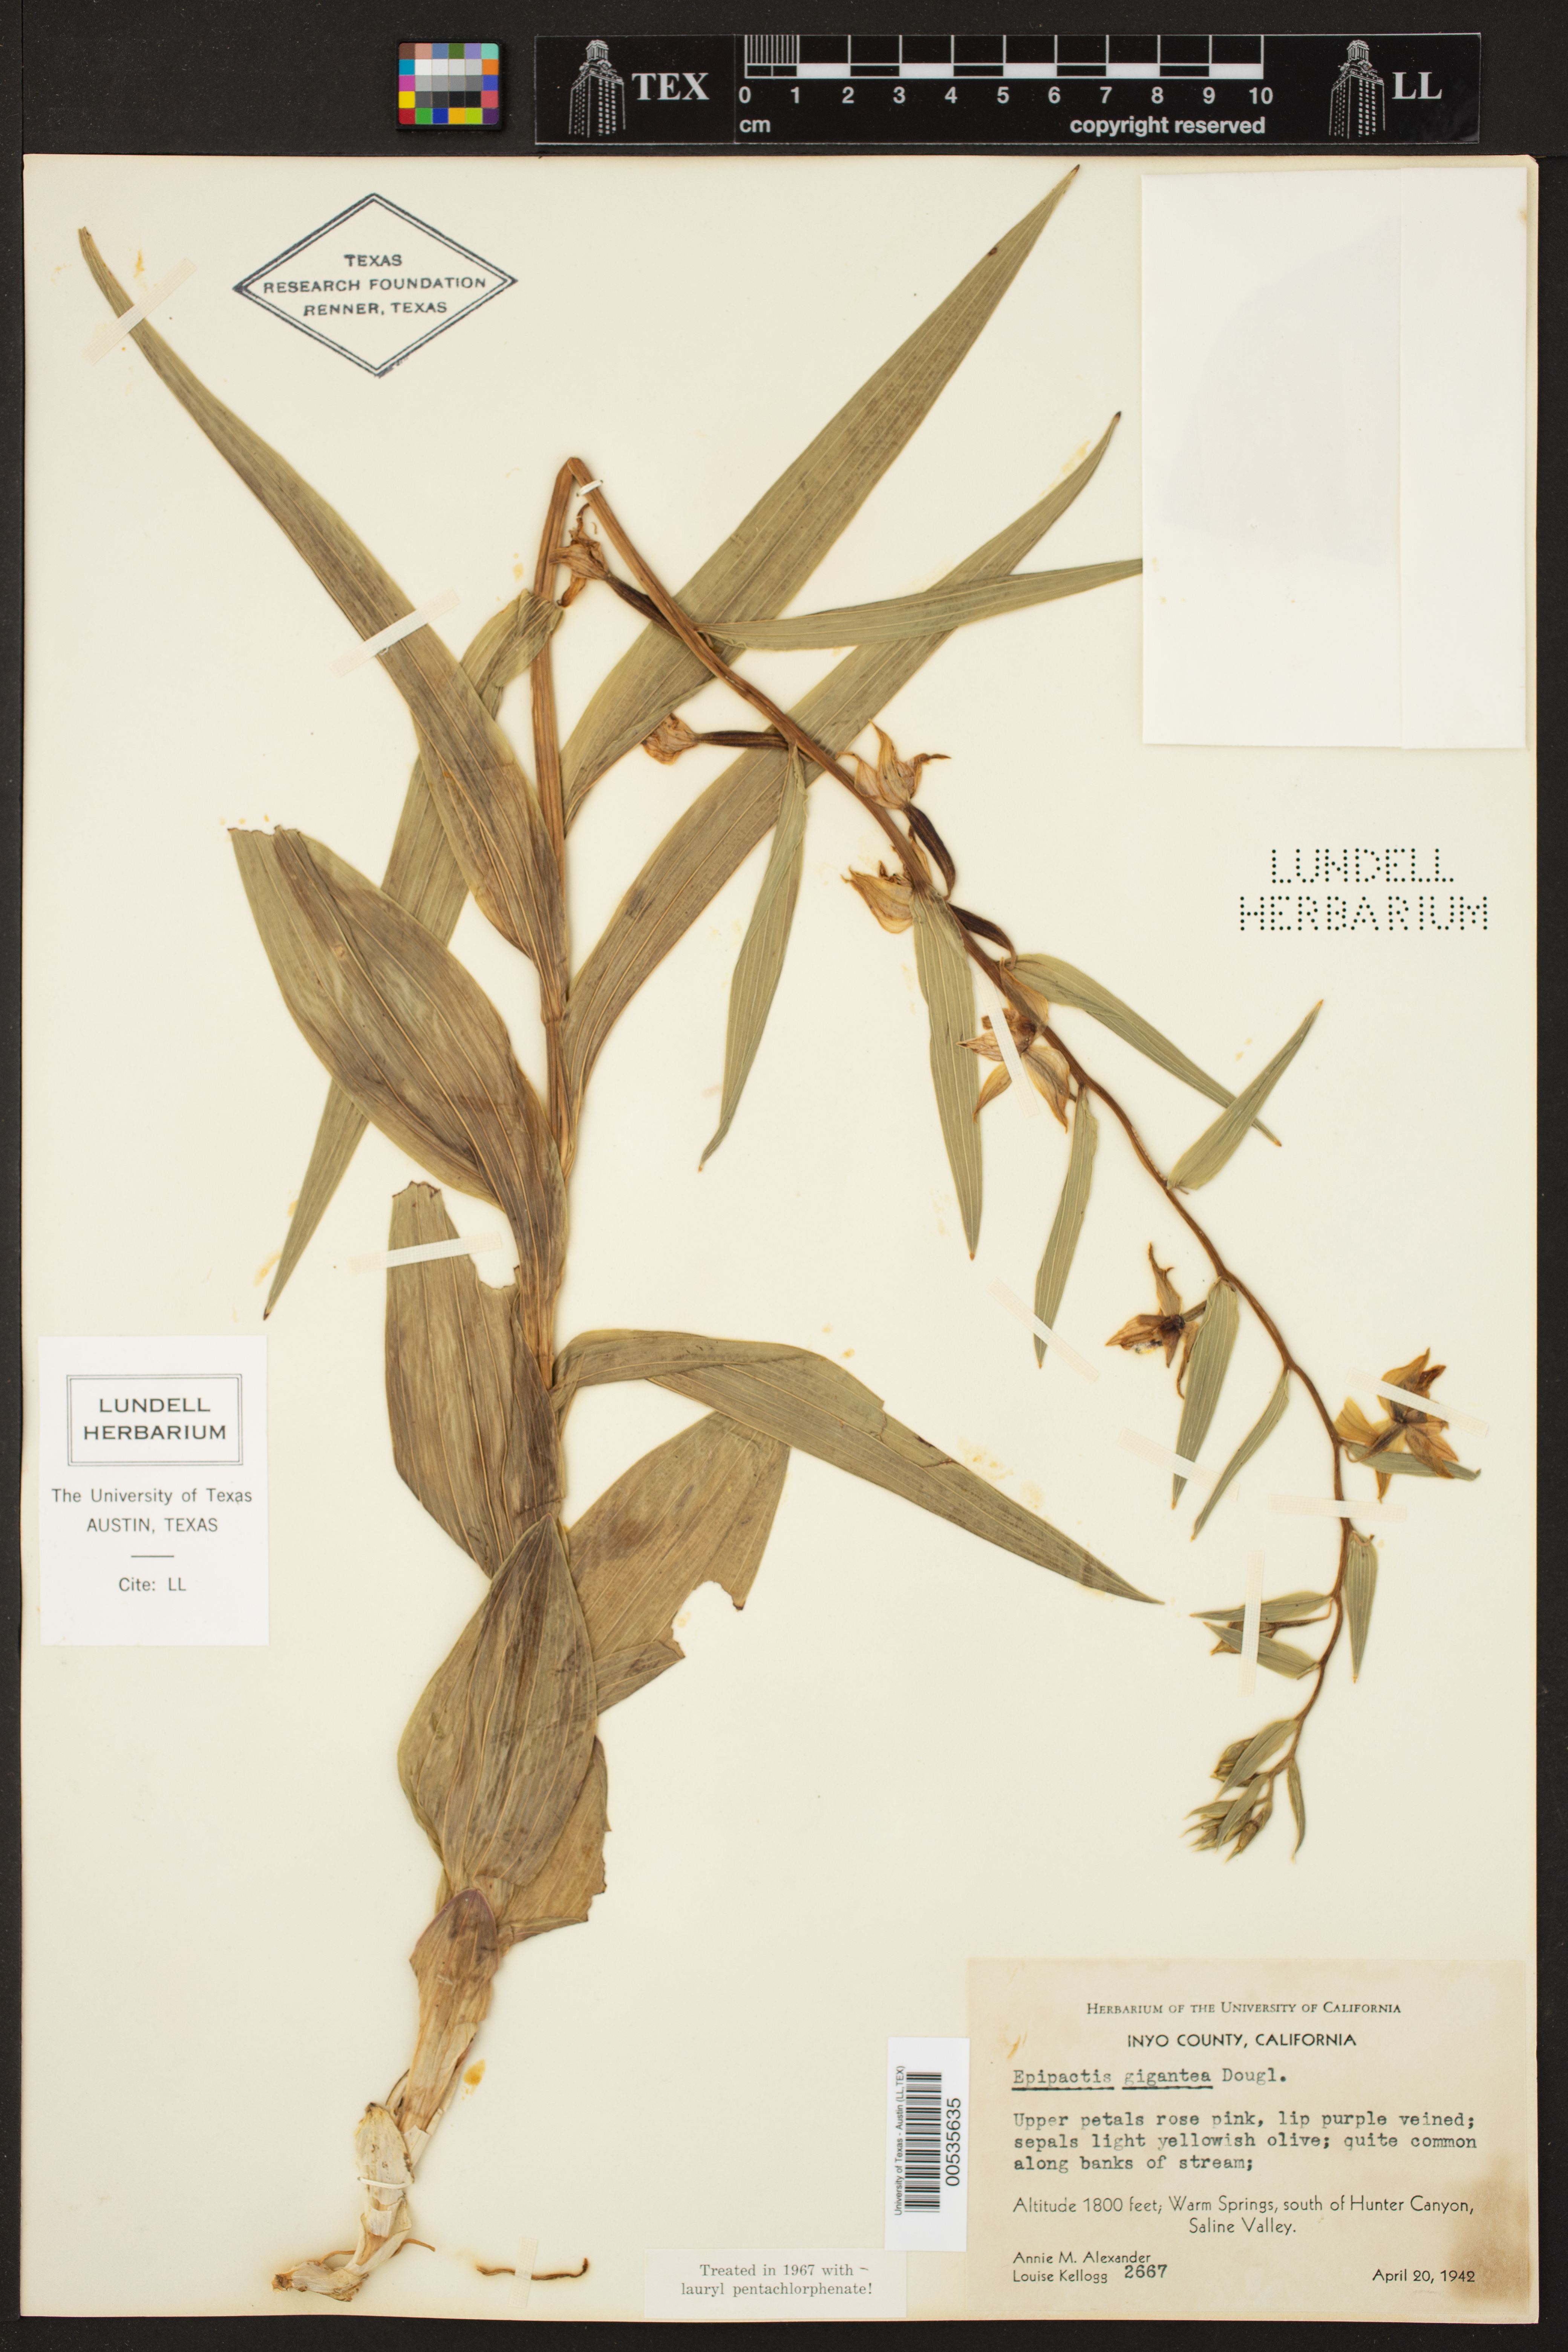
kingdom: Plantae
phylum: Tracheophyta
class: Liliopsida
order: Asparagales
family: Orchidaceae
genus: Epipactis
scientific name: Epipactis gigantea
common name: Chatterbox
